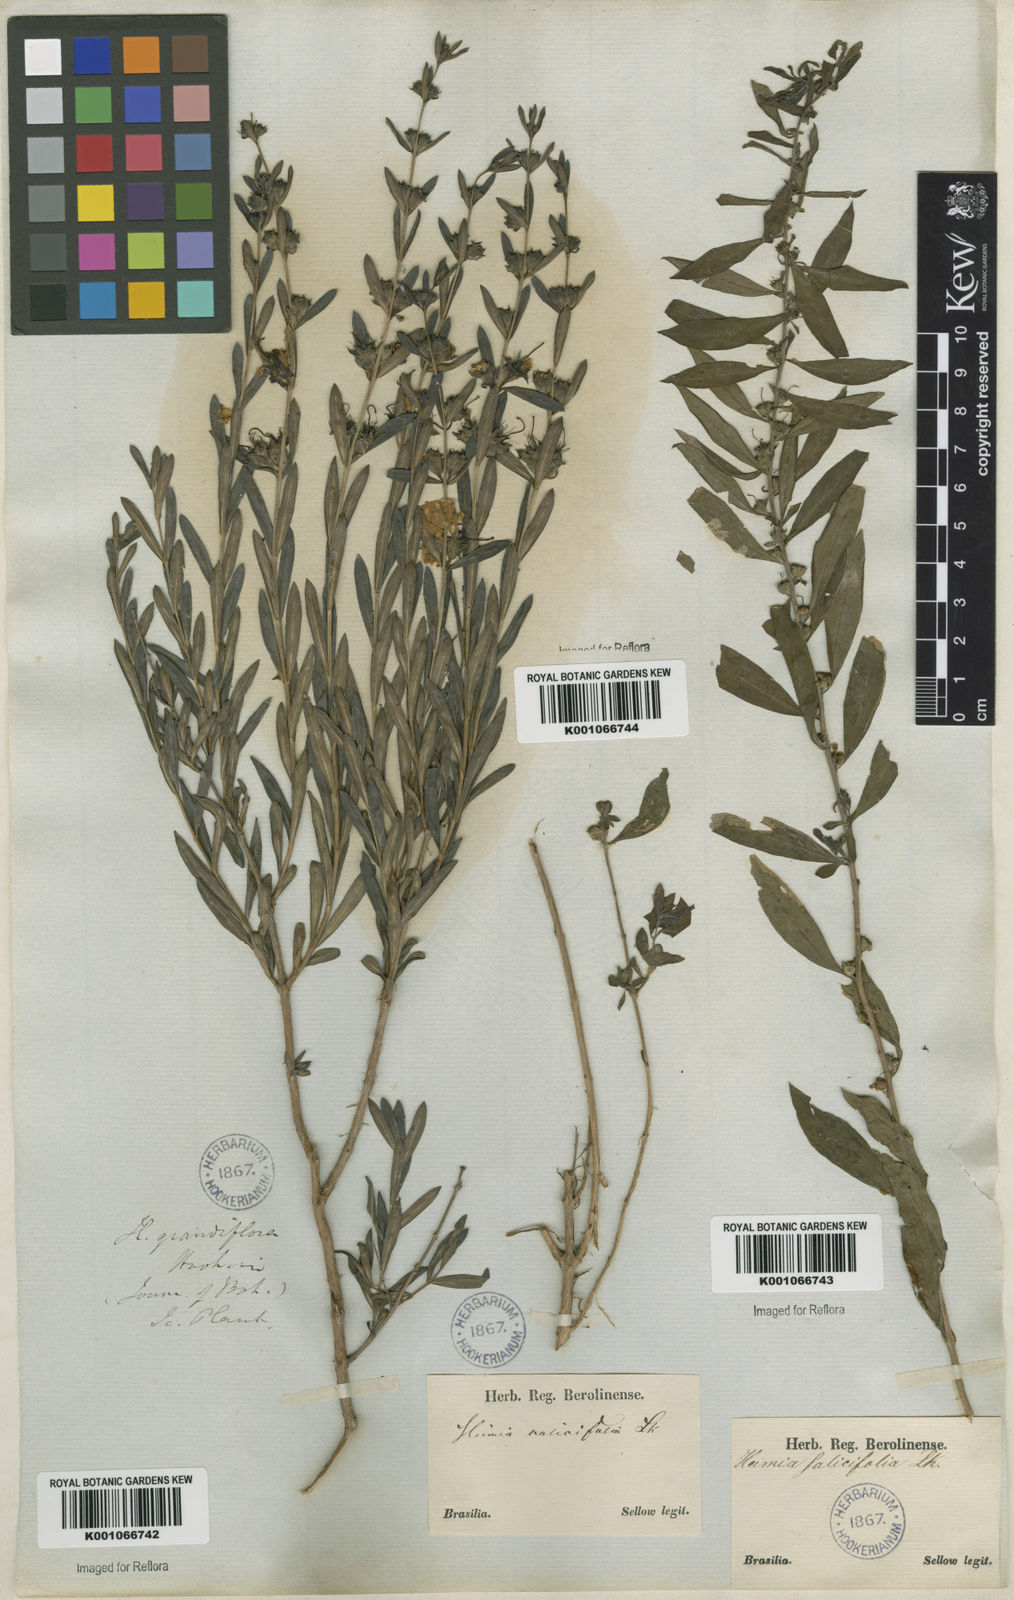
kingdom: Plantae
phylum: Tracheophyta
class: Magnoliopsida
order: Myrtales
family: Lythraceae
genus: Heimia
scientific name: Heimia salicifolia
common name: Willow-leaf heimia
